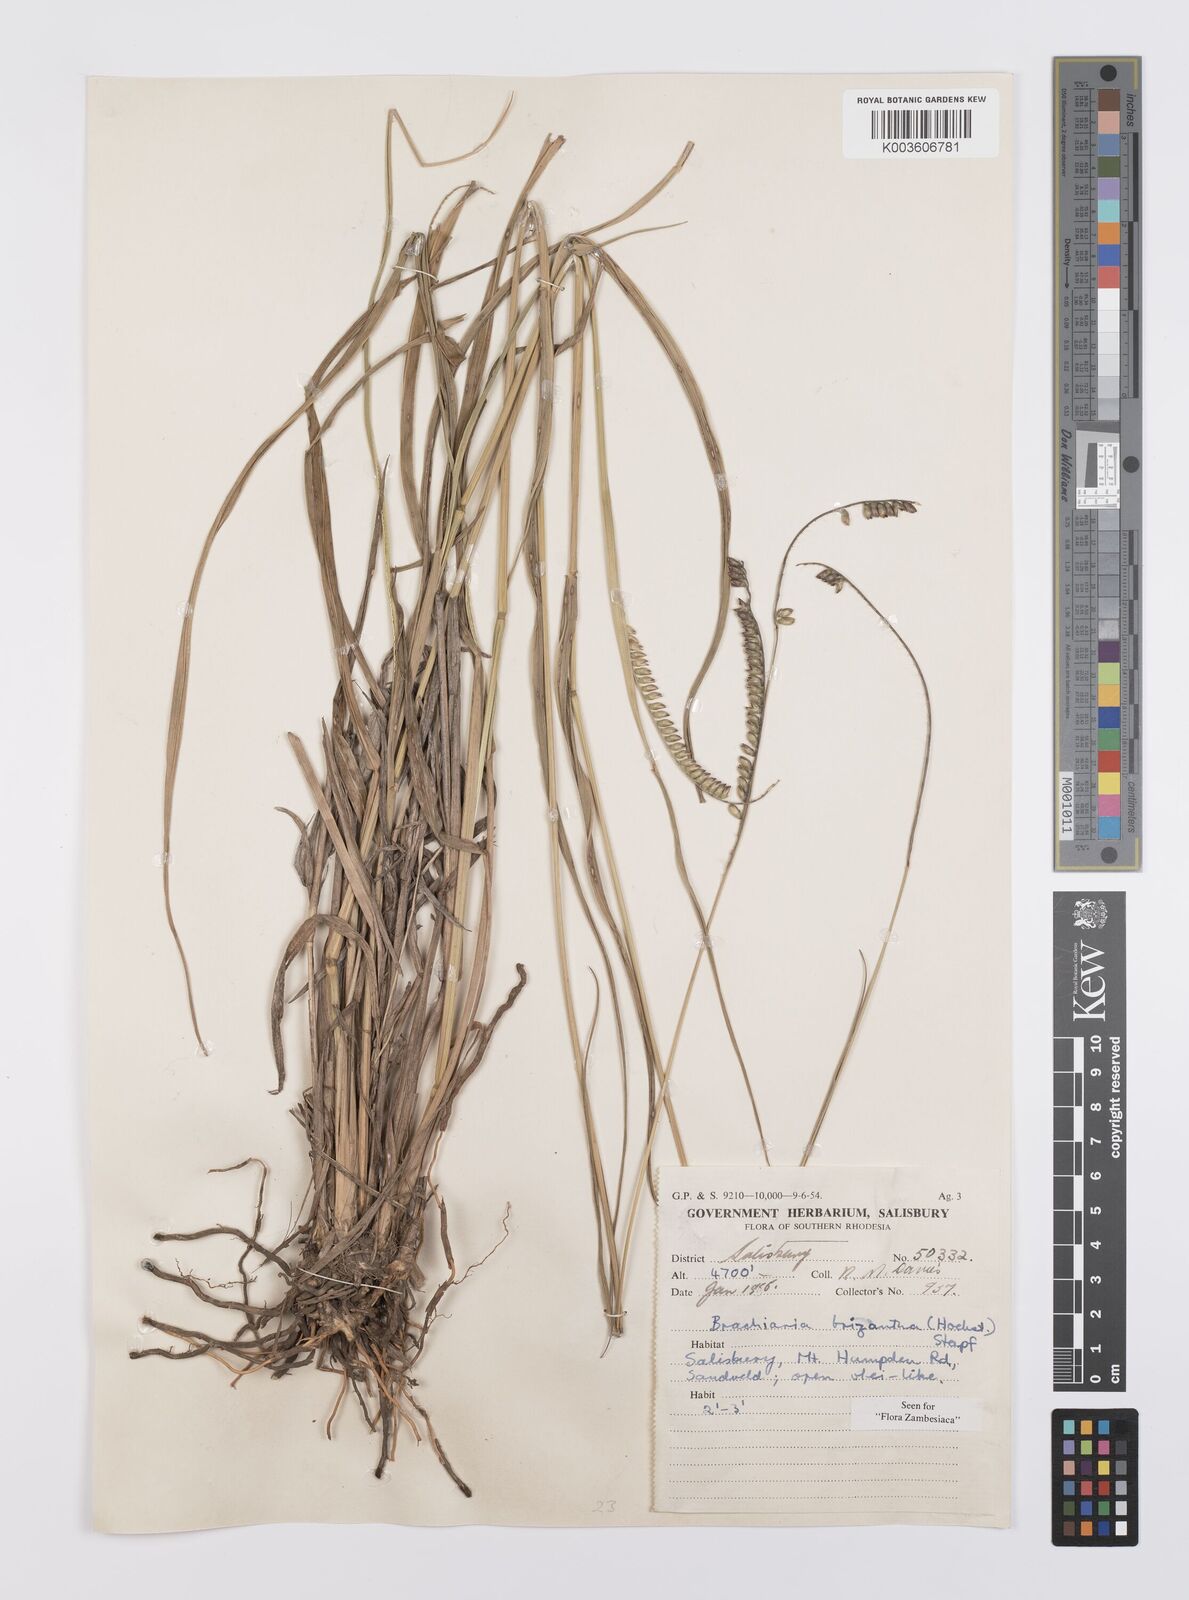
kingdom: Plantae
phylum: Tracheophyta
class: Liliopsida
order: Poales
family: Poaceae
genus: Urochloa
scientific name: Urochloa brizantha
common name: Palisade signalgrass
